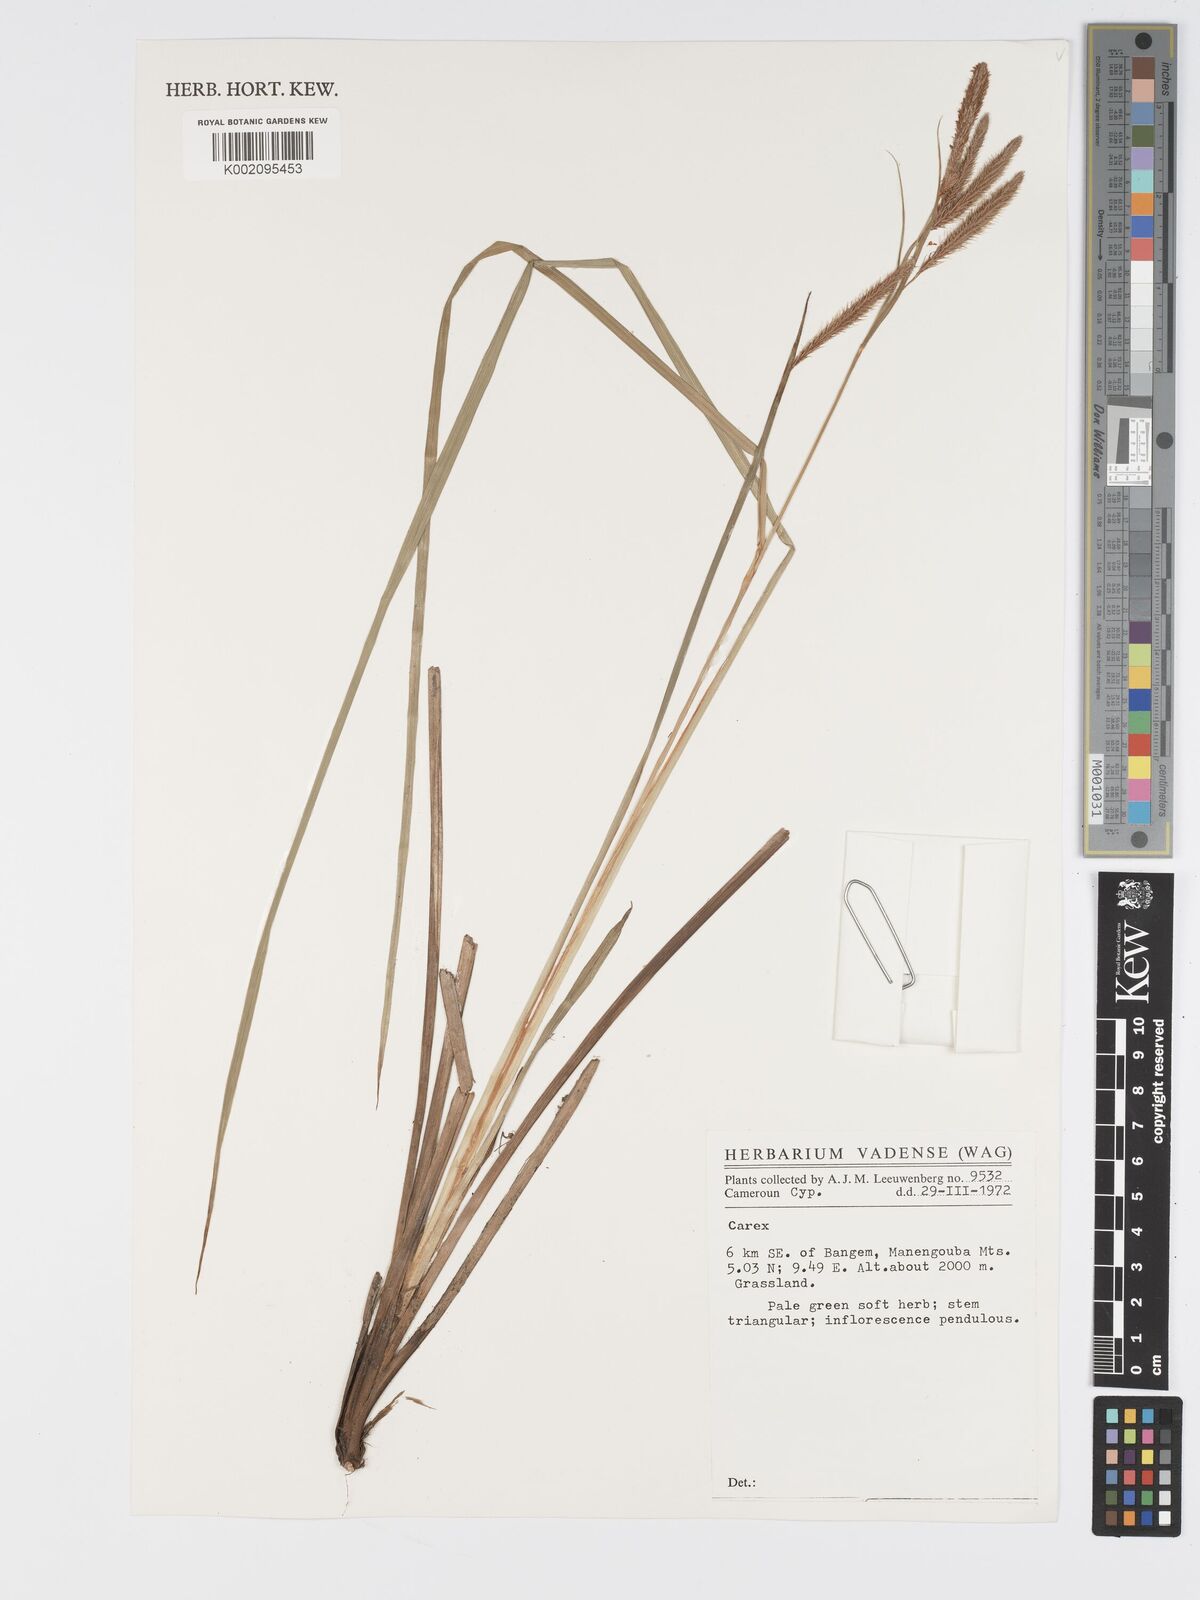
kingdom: Plantae
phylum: Tracheophyta
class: Liliopsida
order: Poales
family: Cyperaceae
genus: Carex
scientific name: Carex
